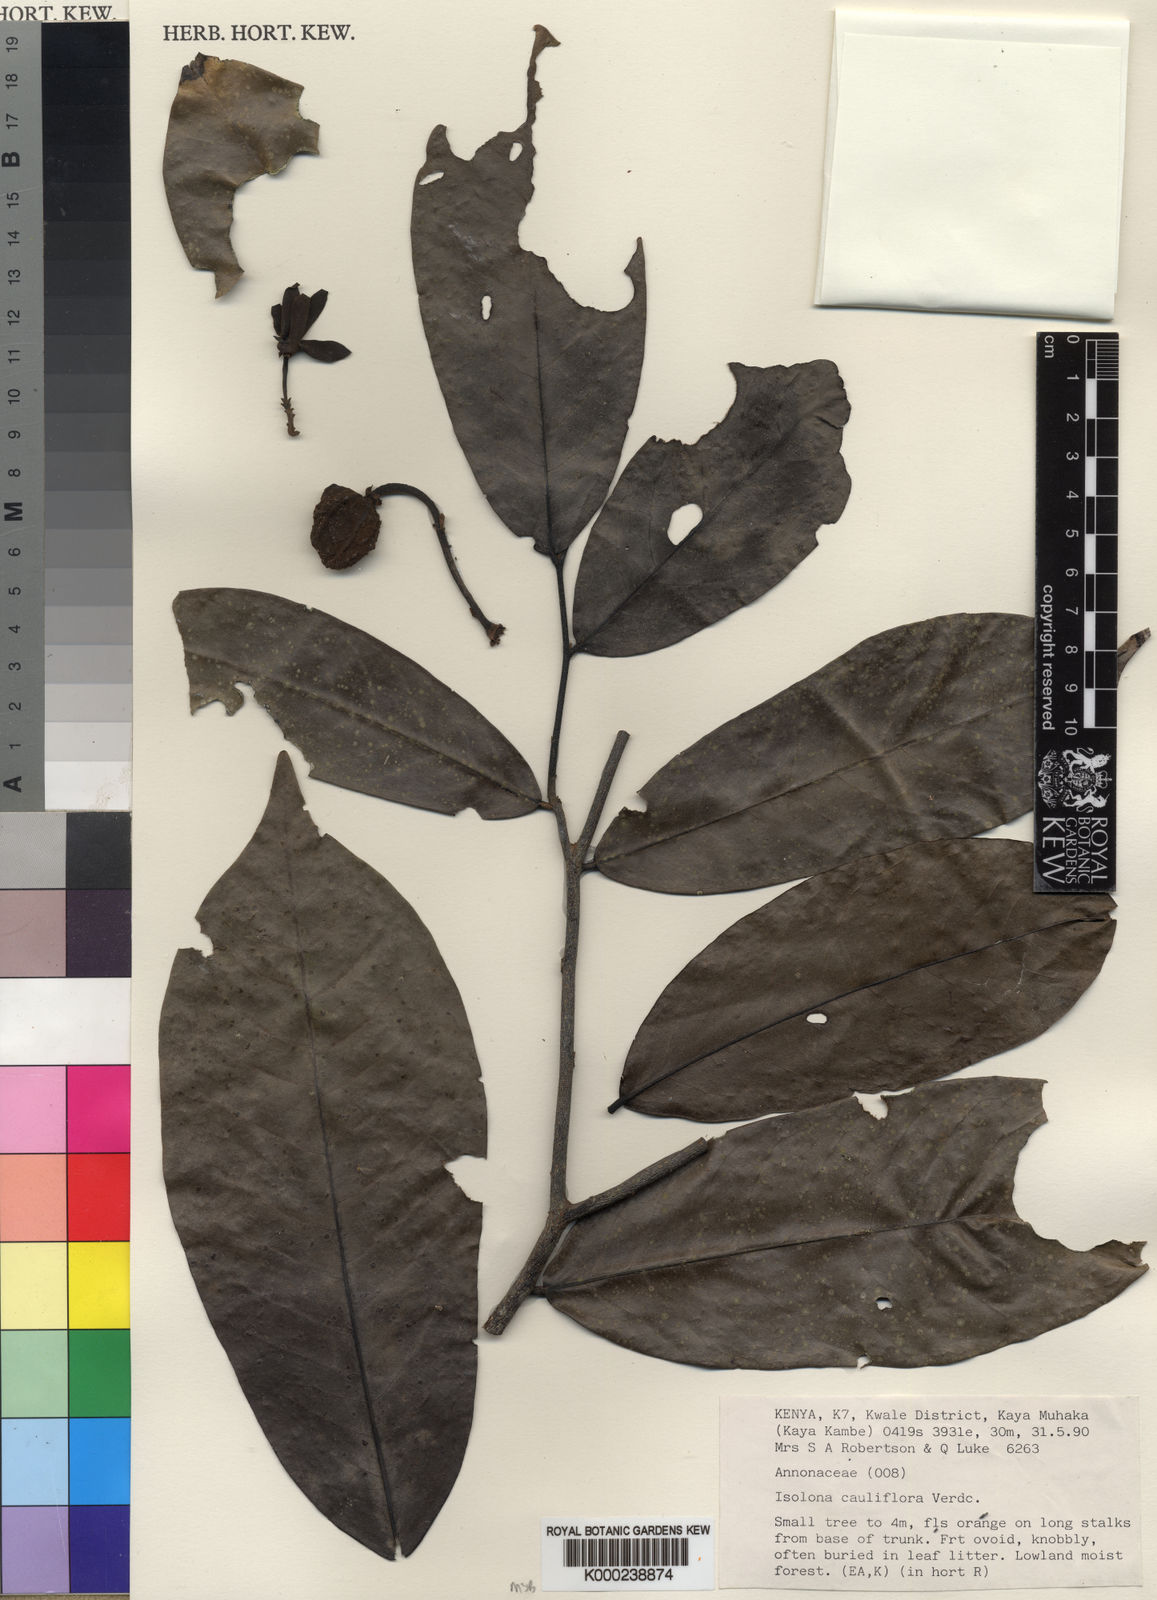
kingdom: Plantae
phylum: Tracheophyta
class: Magnoliopsida
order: Magnoliales
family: Annonaceae
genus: Isolona
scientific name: Isolona cauliflora
